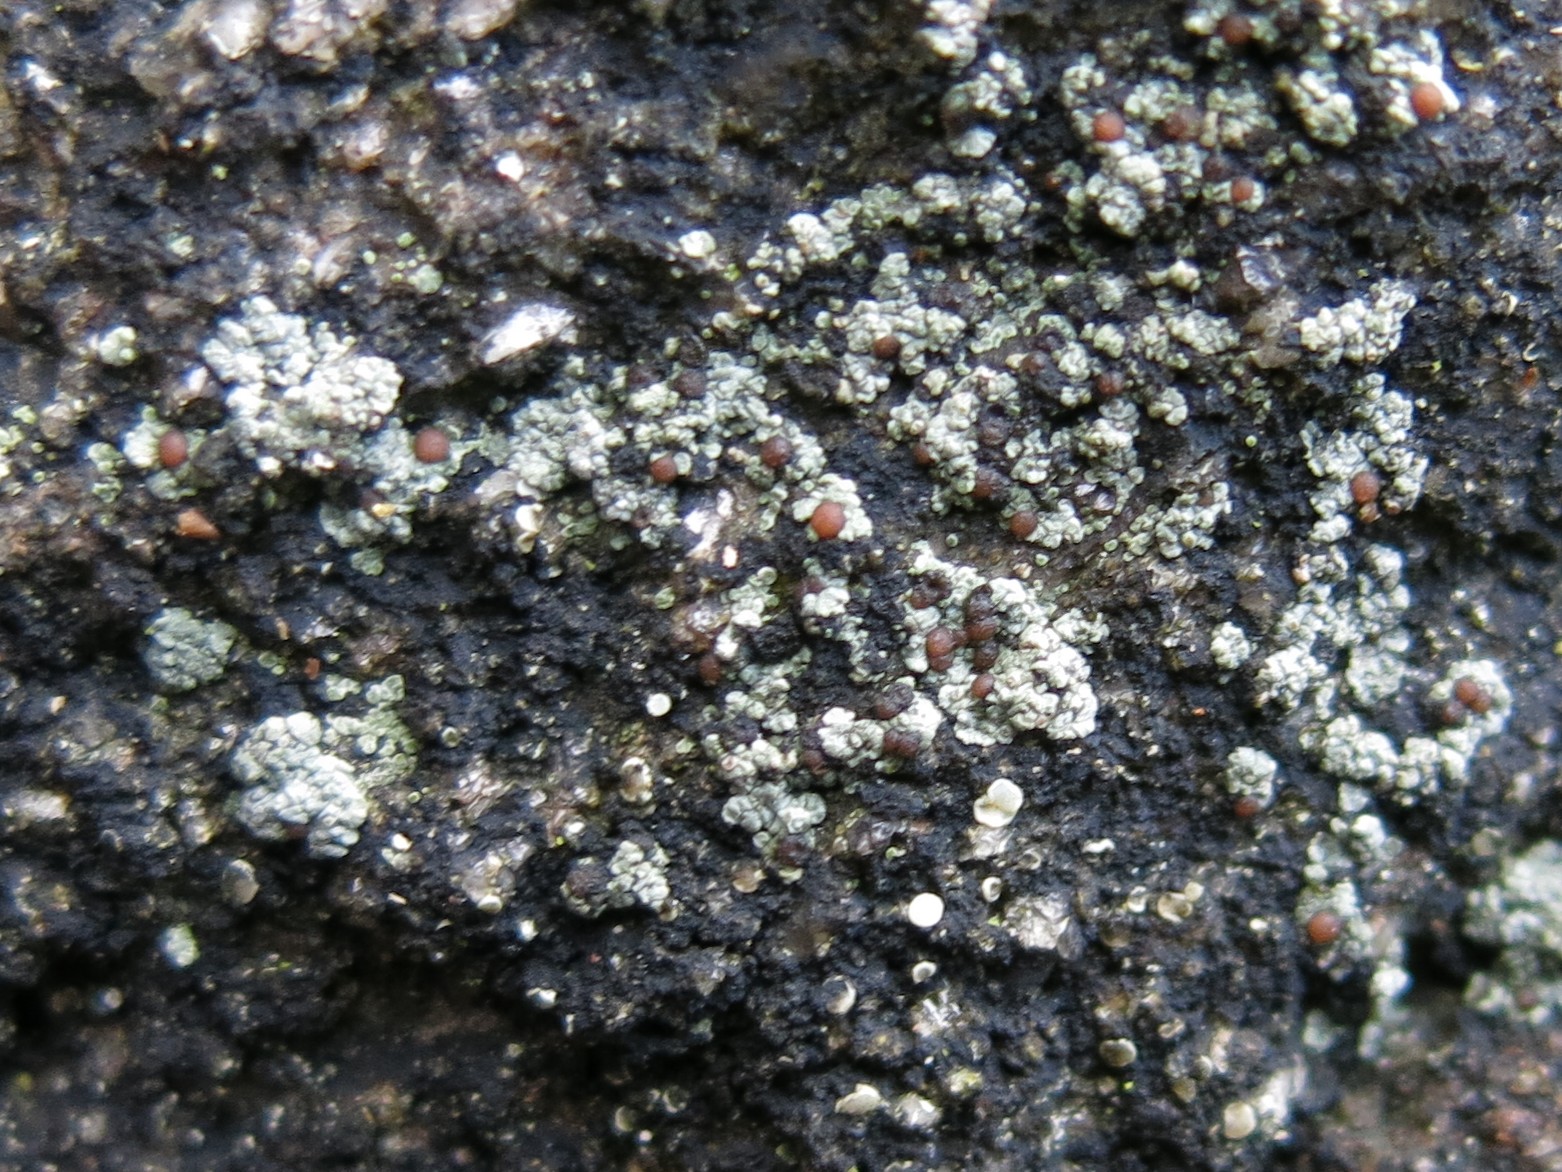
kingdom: Fungi
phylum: Ascomycota
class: Lecanoromycetes
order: Baeomycetales
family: Trapeliaceae
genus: Trapelia
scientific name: Trapelia coarctata
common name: hvidrandet brunskivelav
